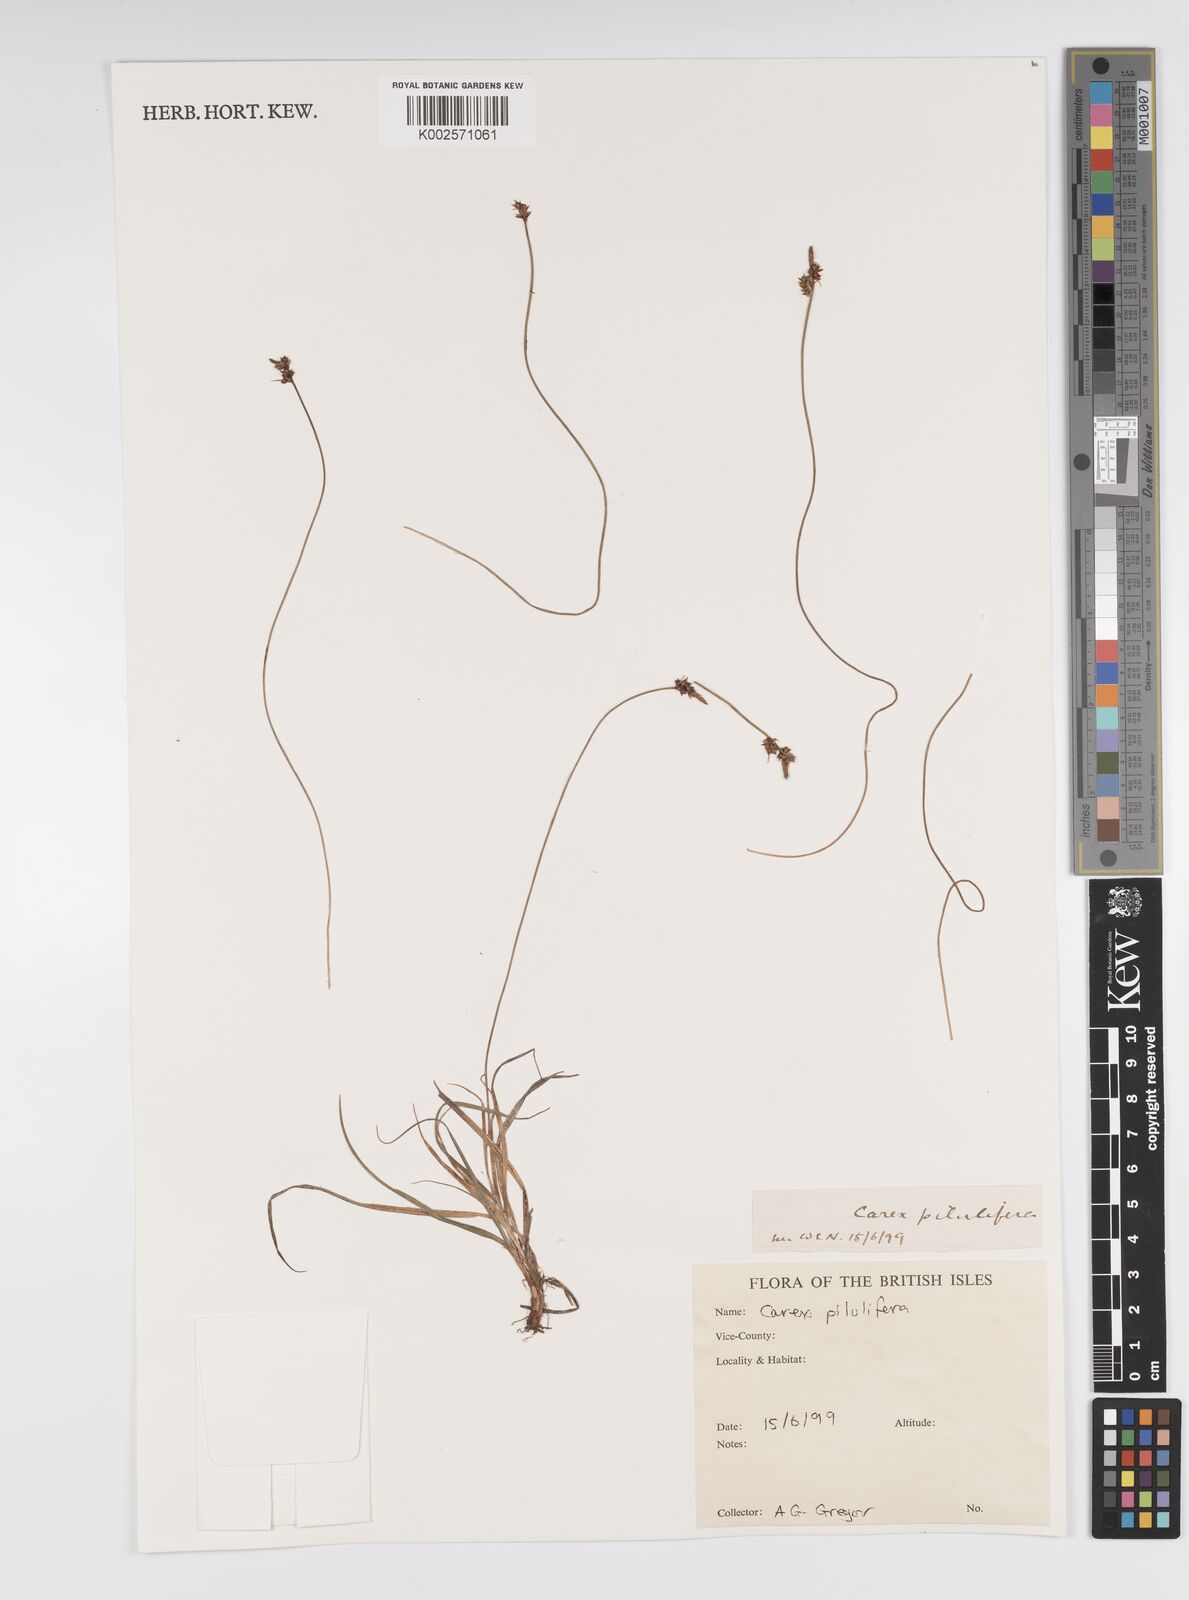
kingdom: Plantae
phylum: Tracheophyta
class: Liliopsida
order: Poales
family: Cyperaceae
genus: Carex
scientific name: Carex pilulifera
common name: Pill sedge
